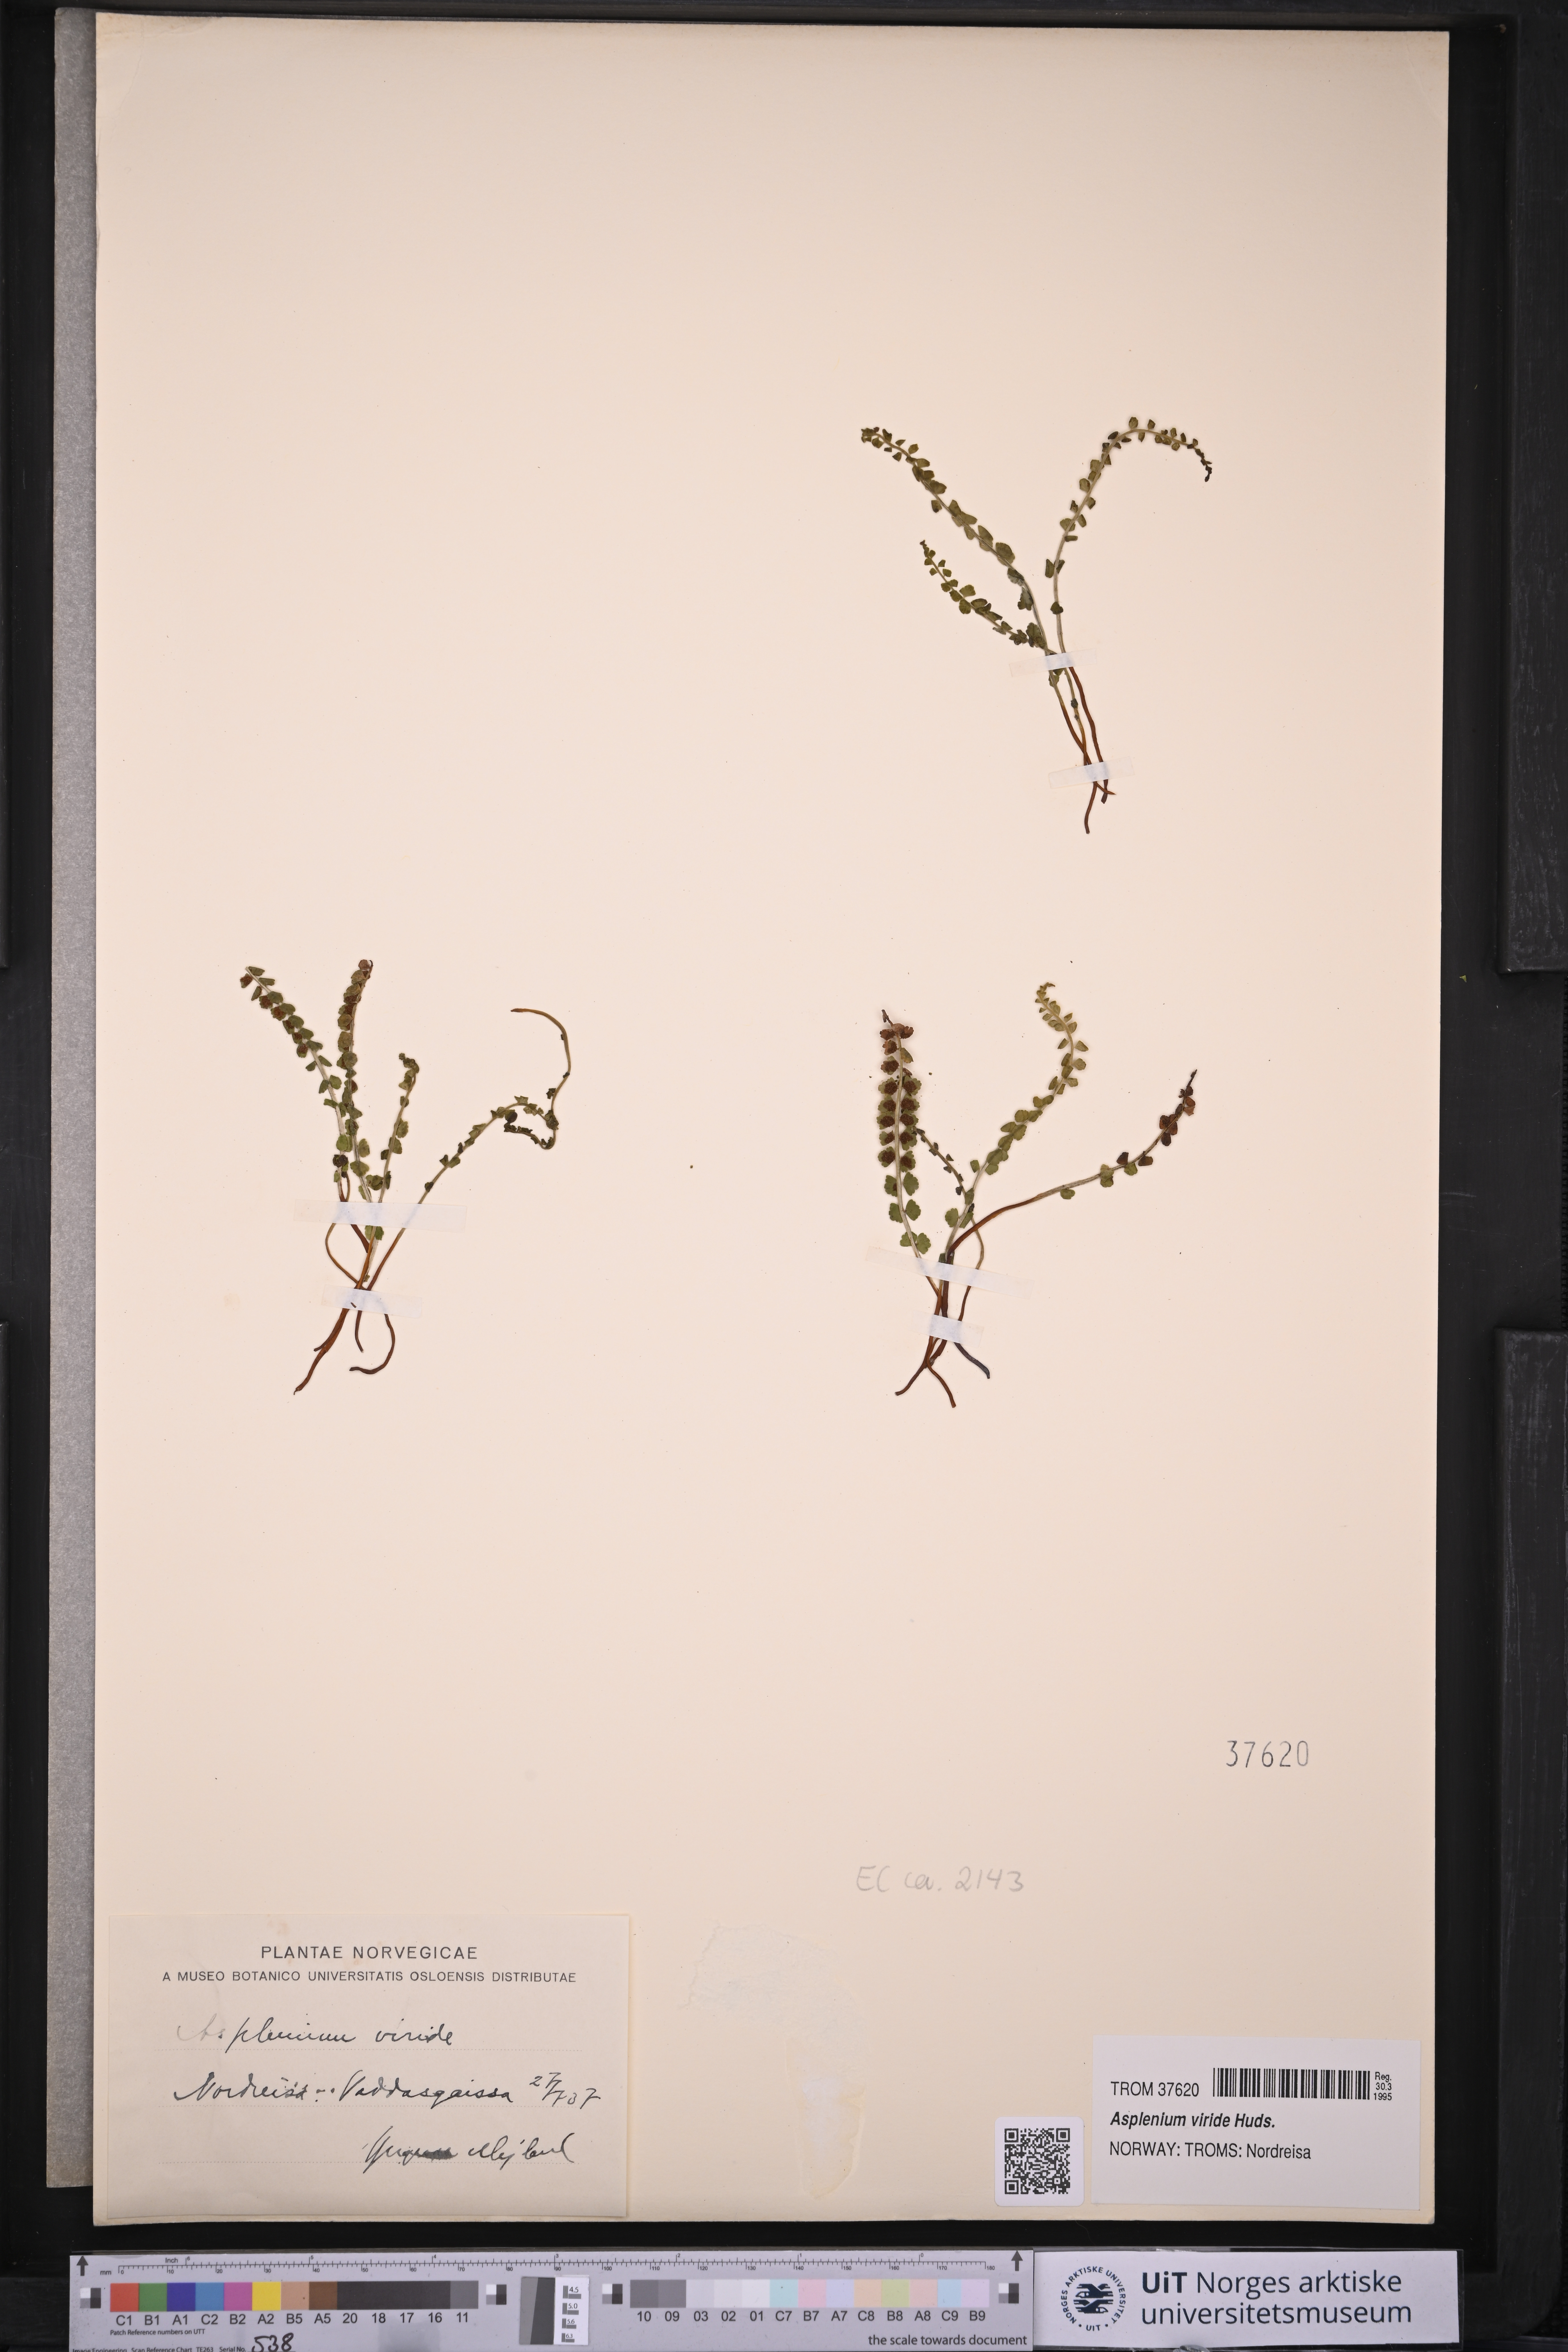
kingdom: Plantae
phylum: Tracheophyta
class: Polypodiopsida
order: Polypodiales
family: Aspleniaceae
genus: Asplenium
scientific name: Asplenium viride
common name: Green spleenwort
